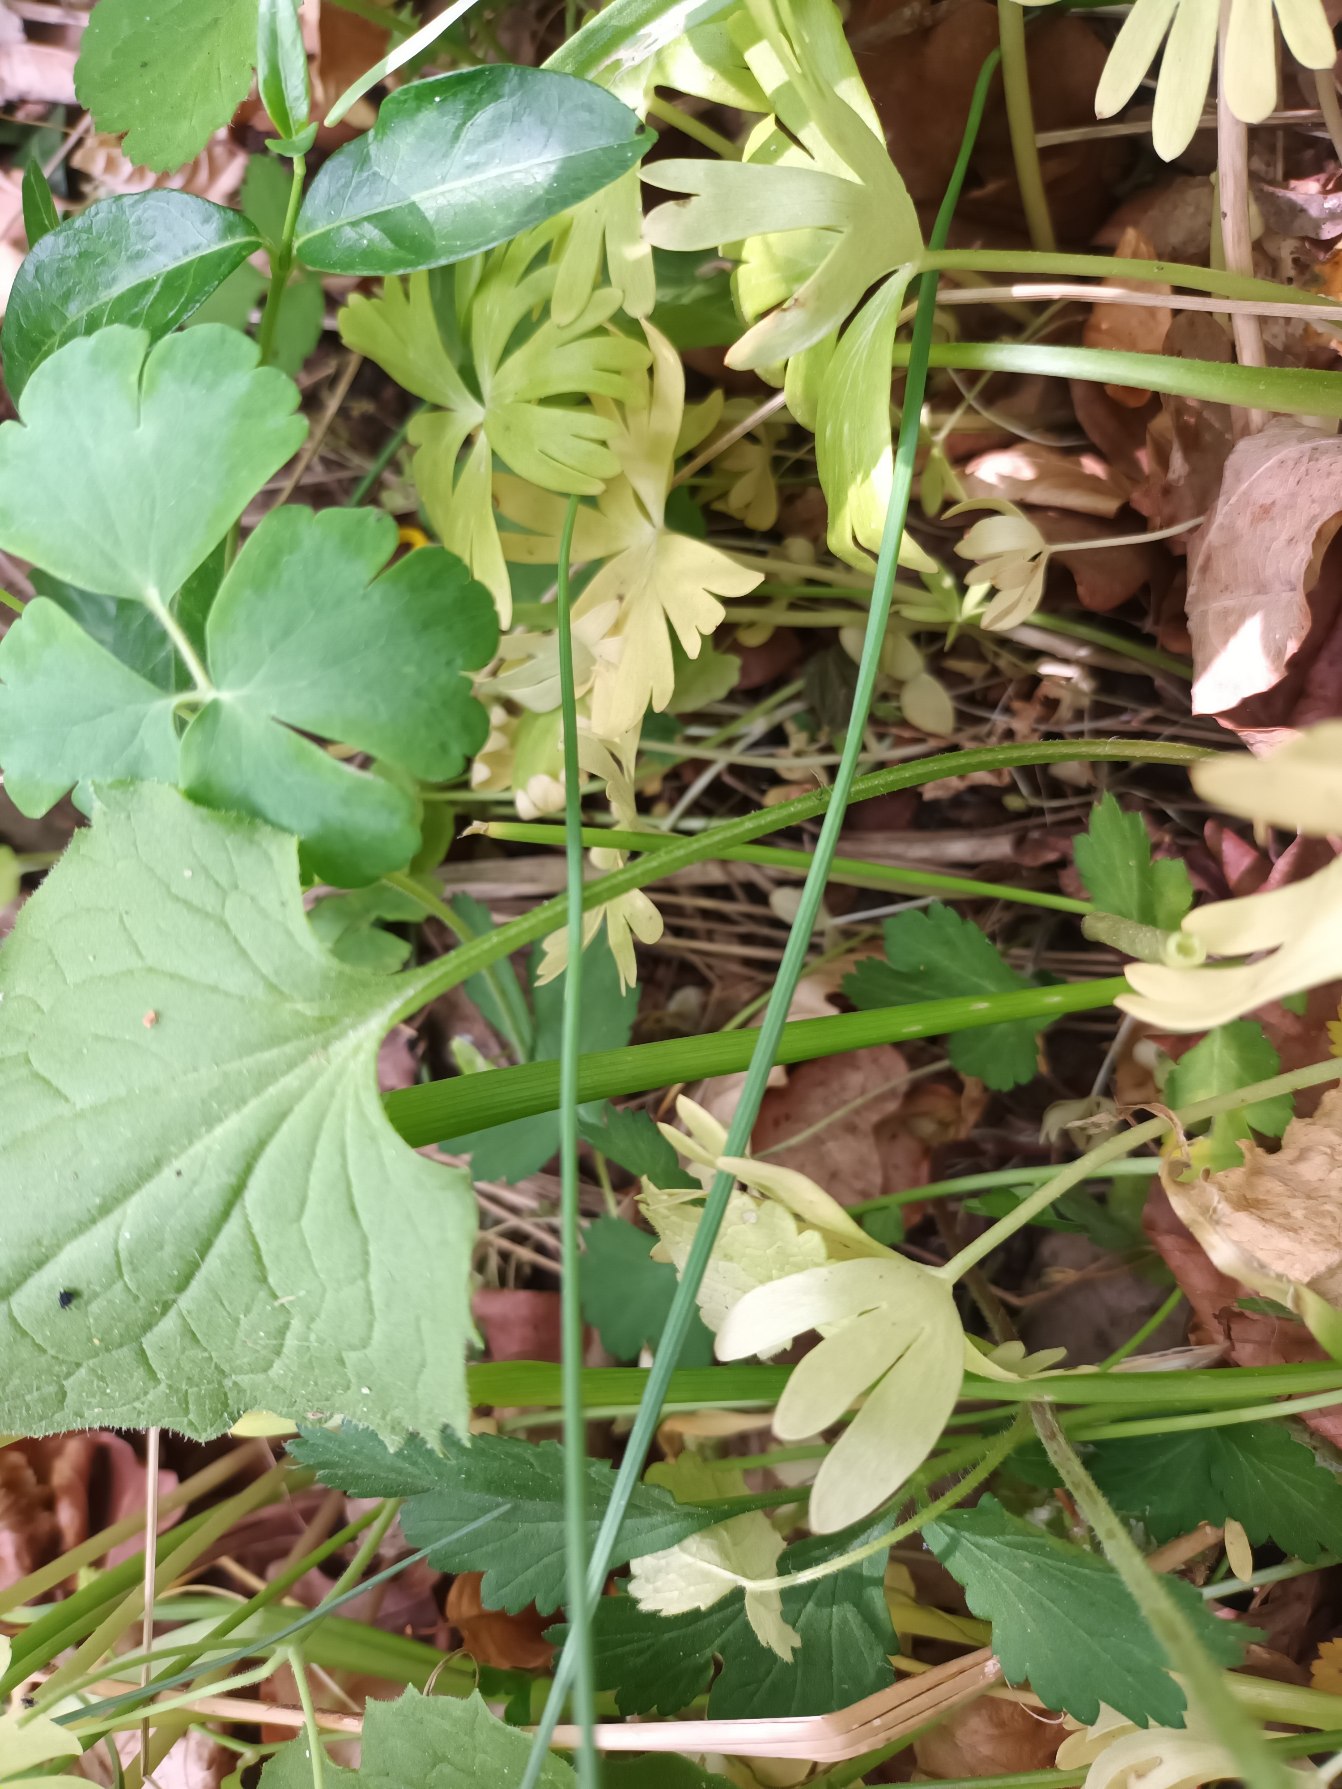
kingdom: Plantae
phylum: Tracheophyta
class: Magnoliopsida
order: Asterales
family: Asteraceae
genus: Doronicum
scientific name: Doronicum excelsum
